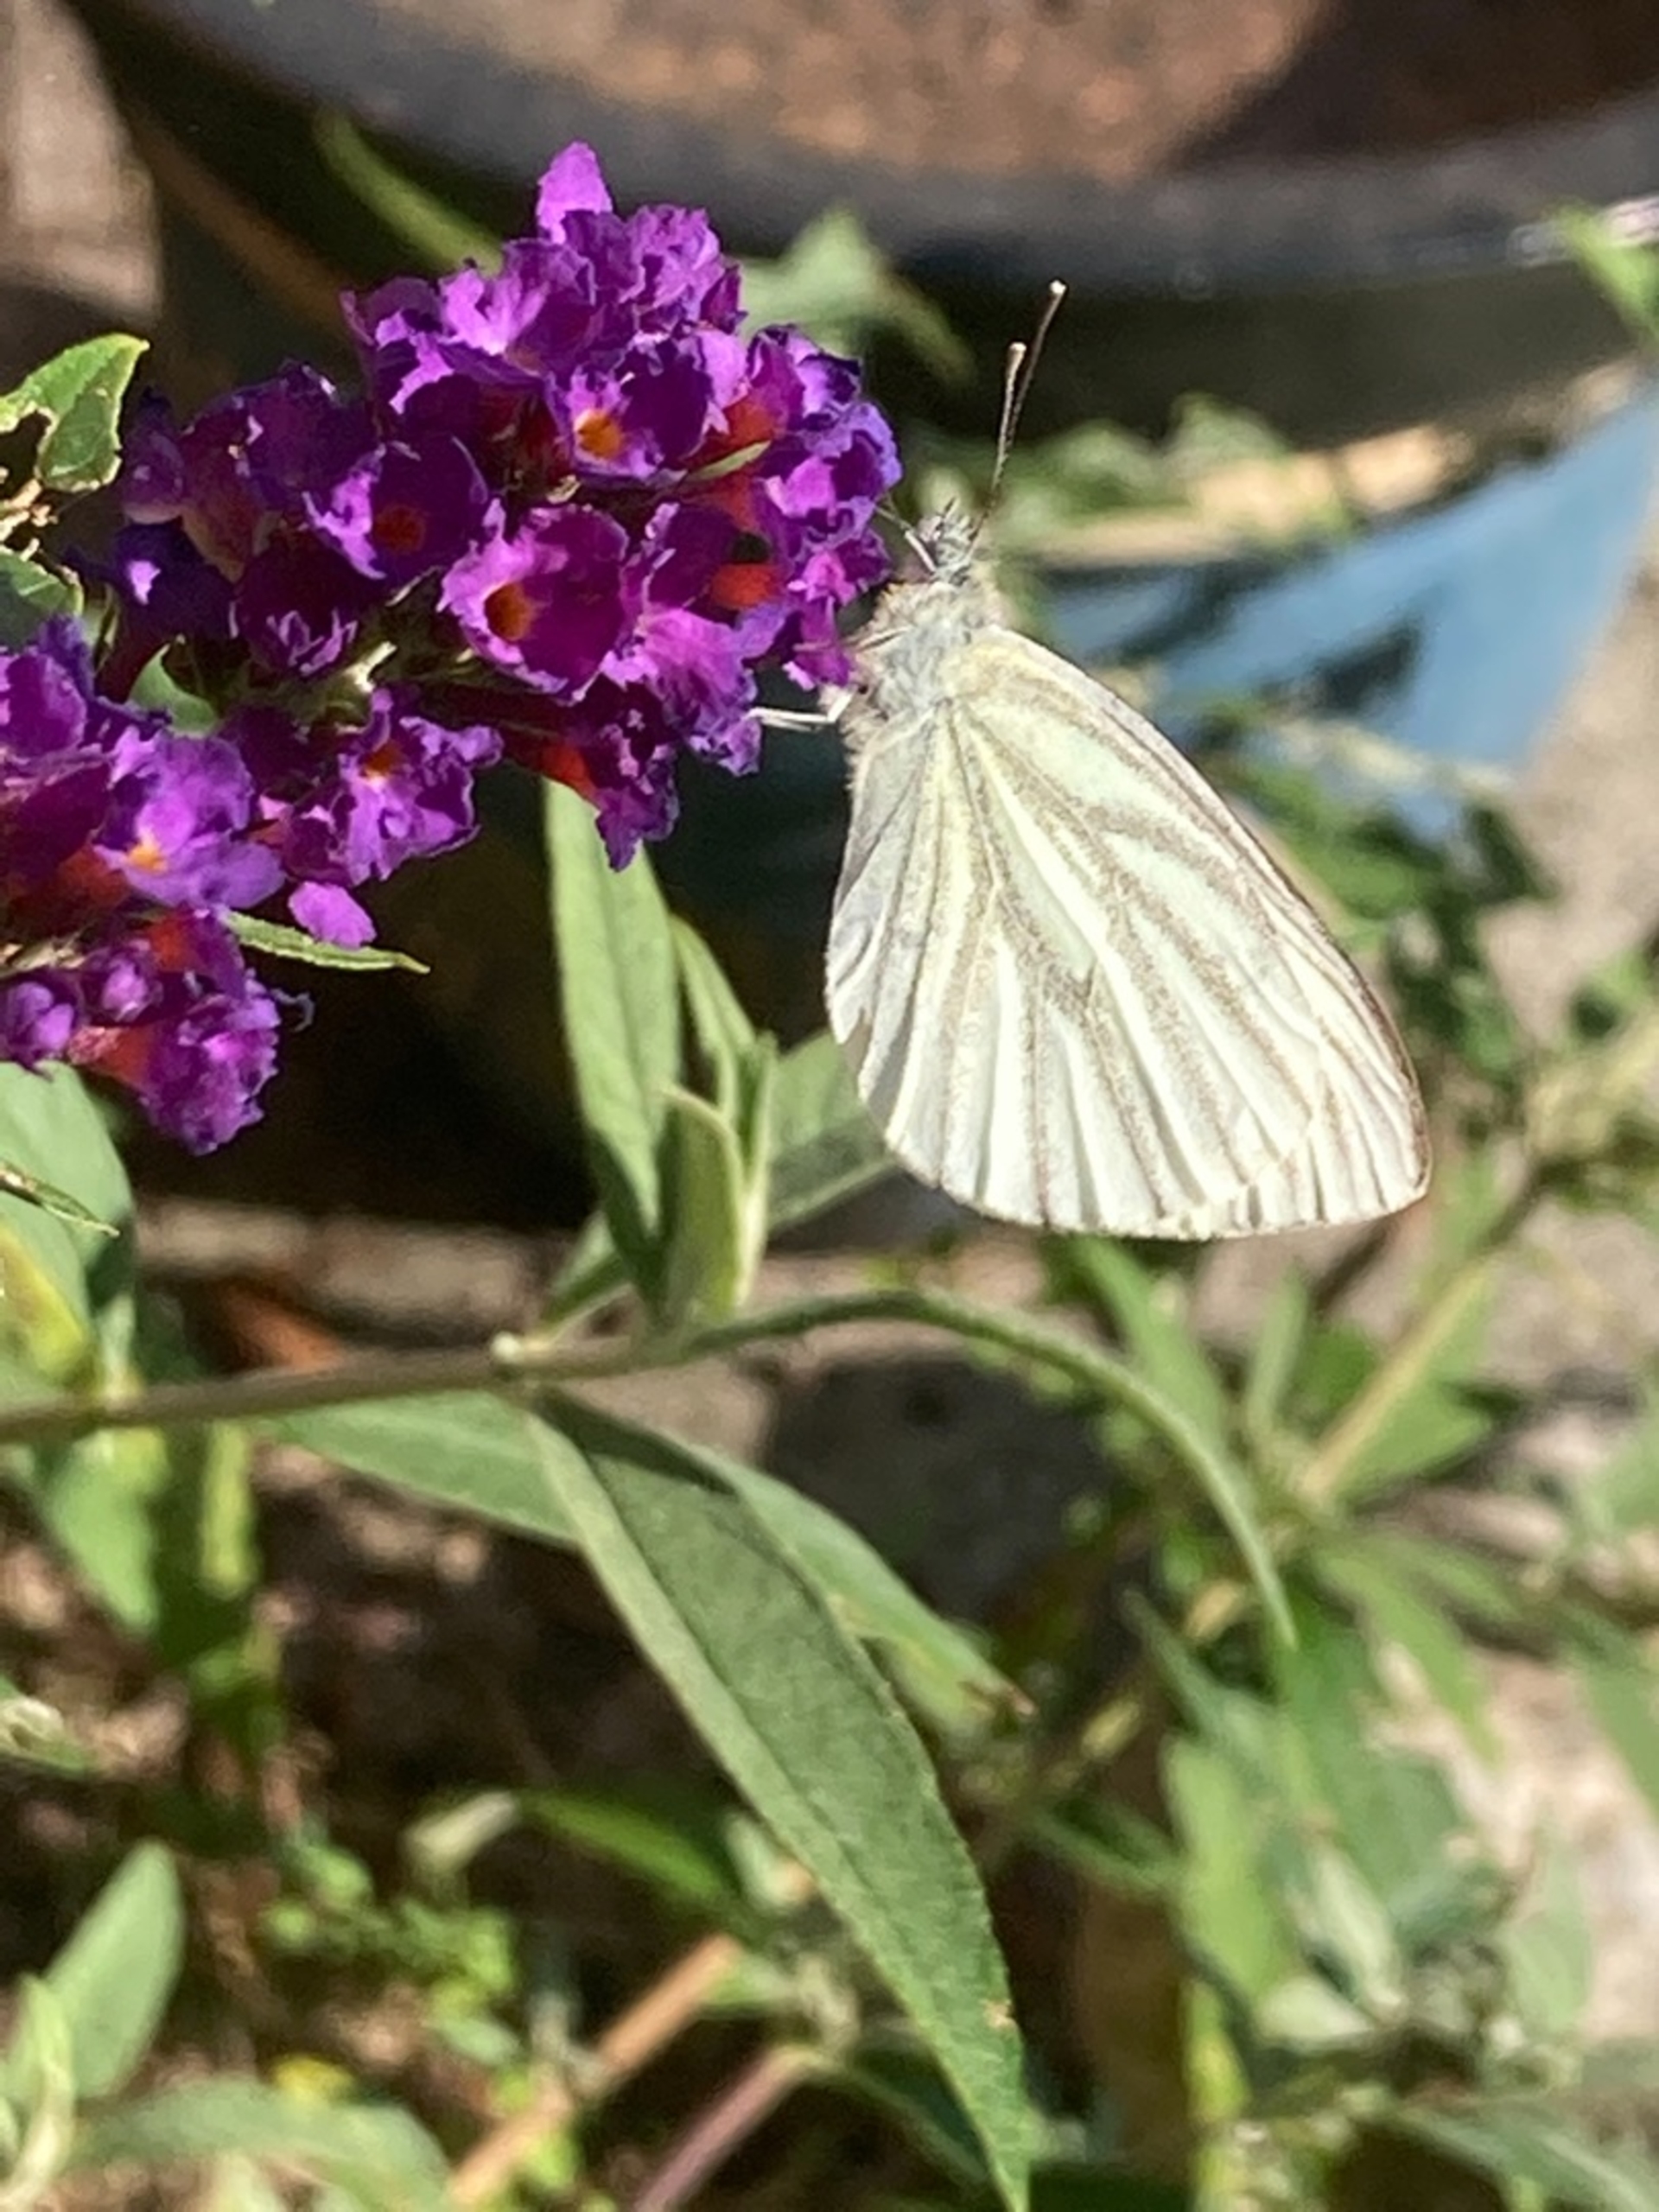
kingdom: Animalia
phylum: Arthropoda
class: Insecta
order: Lepidoptera
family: Pieridae
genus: Pieris
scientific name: Pieris napi
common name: Grønåret kålsommerfugl
